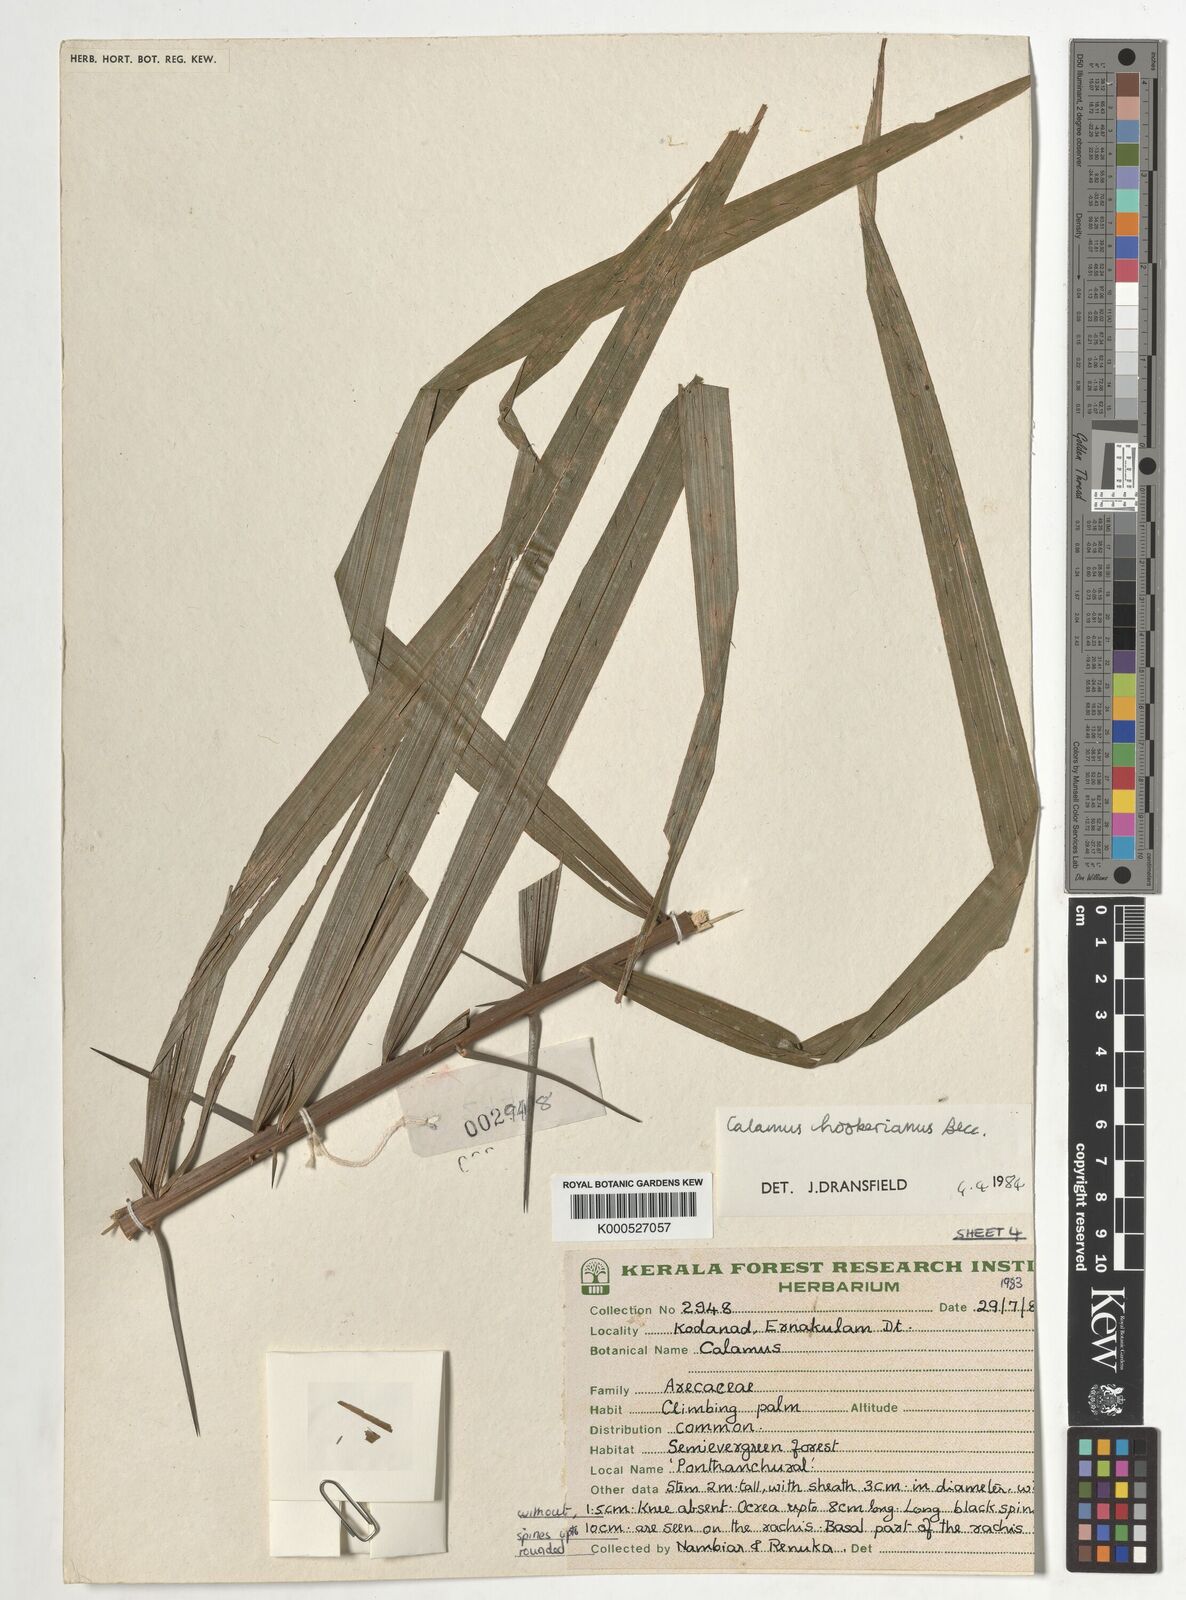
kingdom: Plantae
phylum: Tracheophyta
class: Liliopsida
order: Arecales
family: Arecaceae
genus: Calamus
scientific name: Calamus hookerianus
